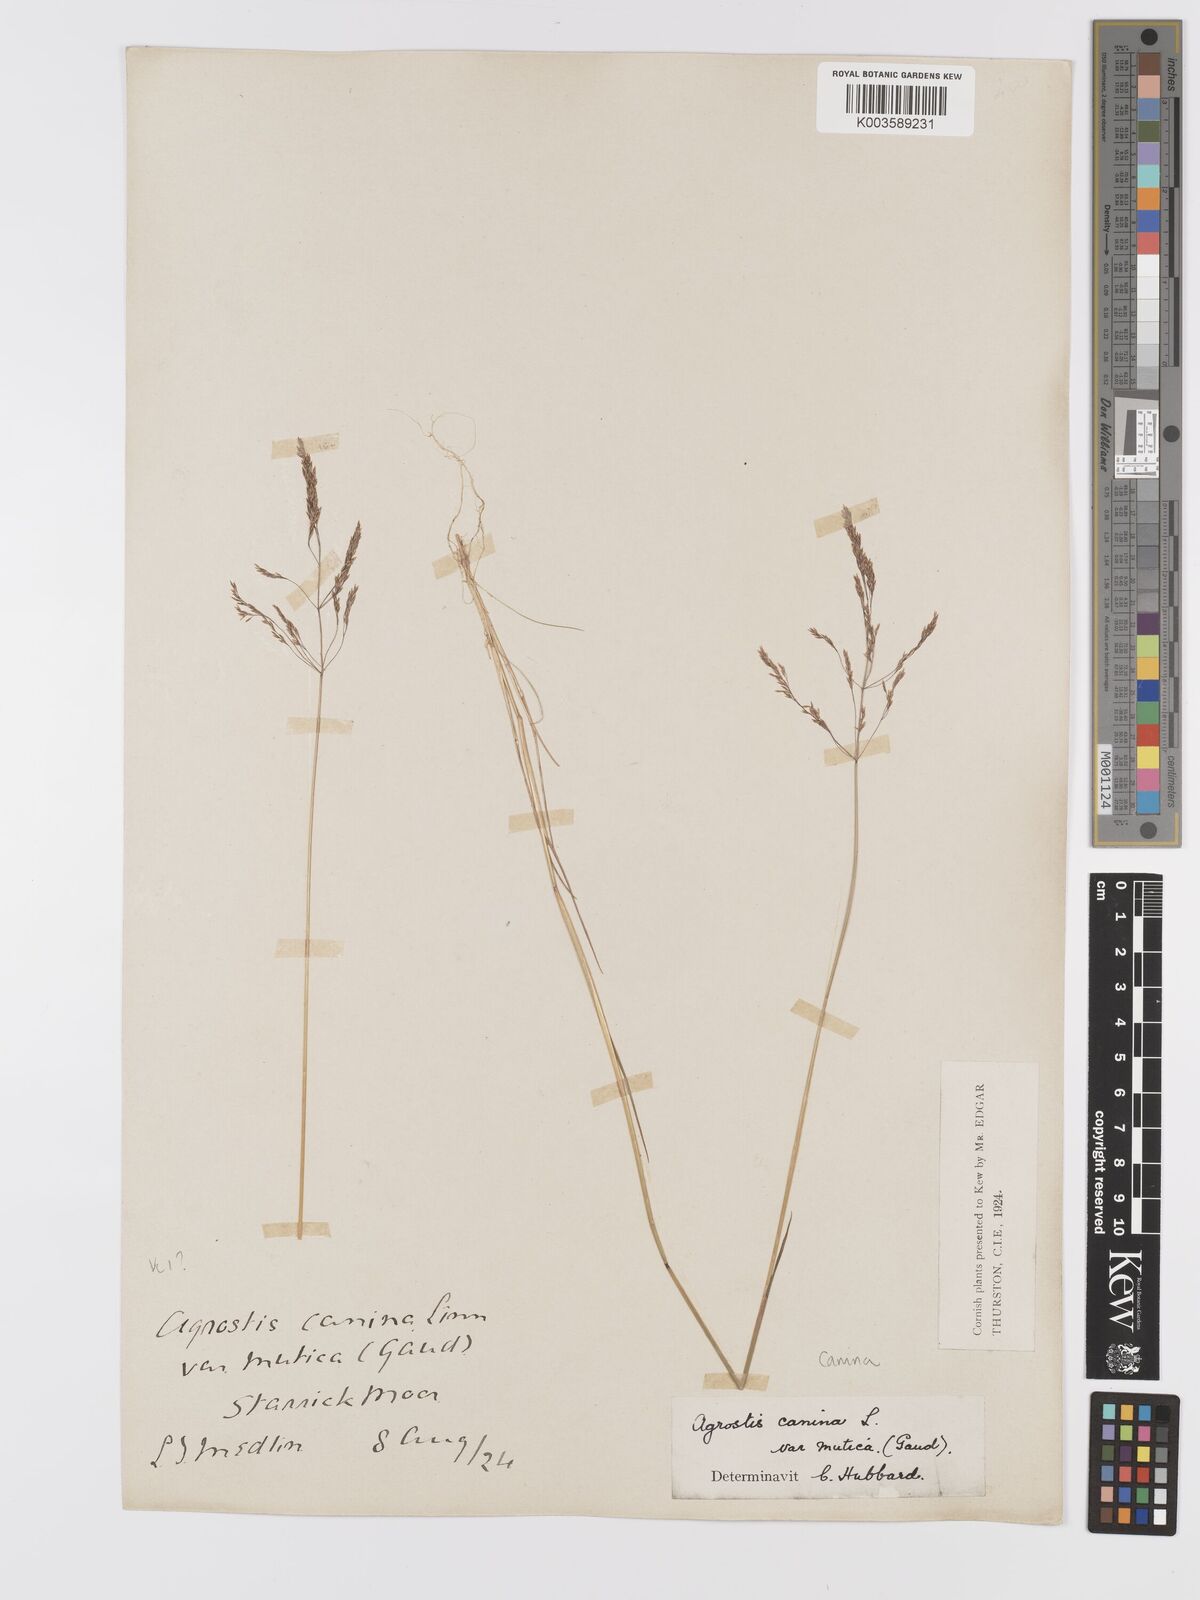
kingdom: Plantae
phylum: Tracheophyta
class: Liliopsida
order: Poales
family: Poaceae
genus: Agrostis
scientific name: Agrostis canina
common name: Velvet bent
